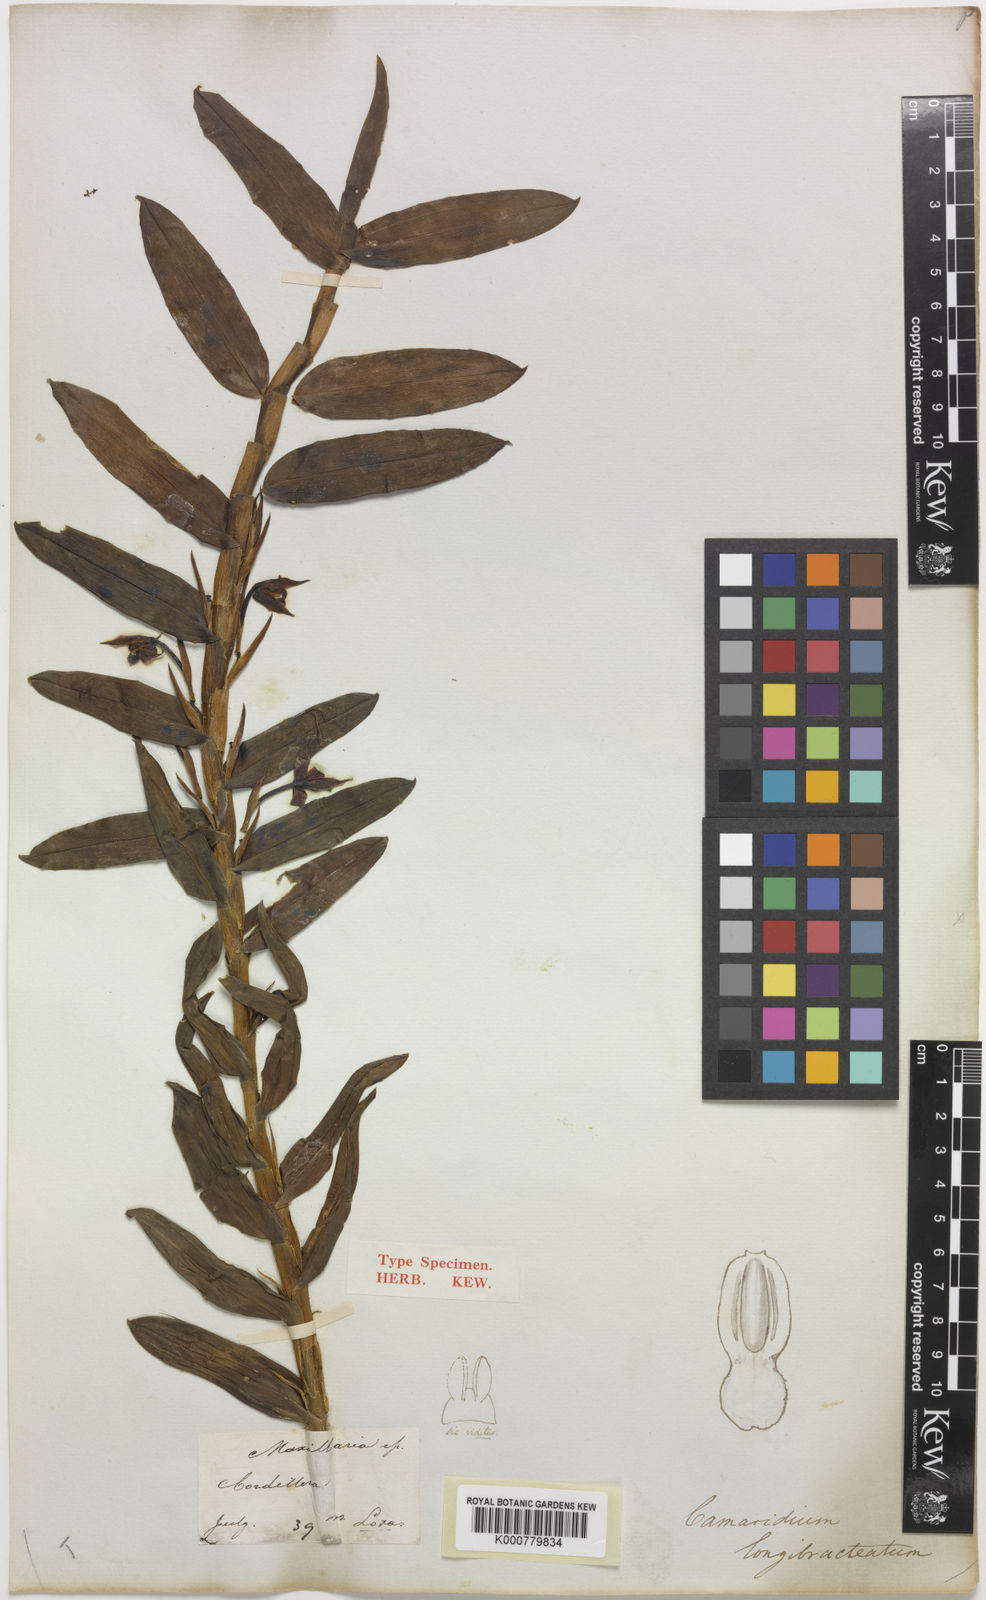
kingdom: Plantae
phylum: Tracheophyta
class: Liliopsida
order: Asparagales
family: Orchidaceae
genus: Maxillaria
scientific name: Maxillaria longibracteata
